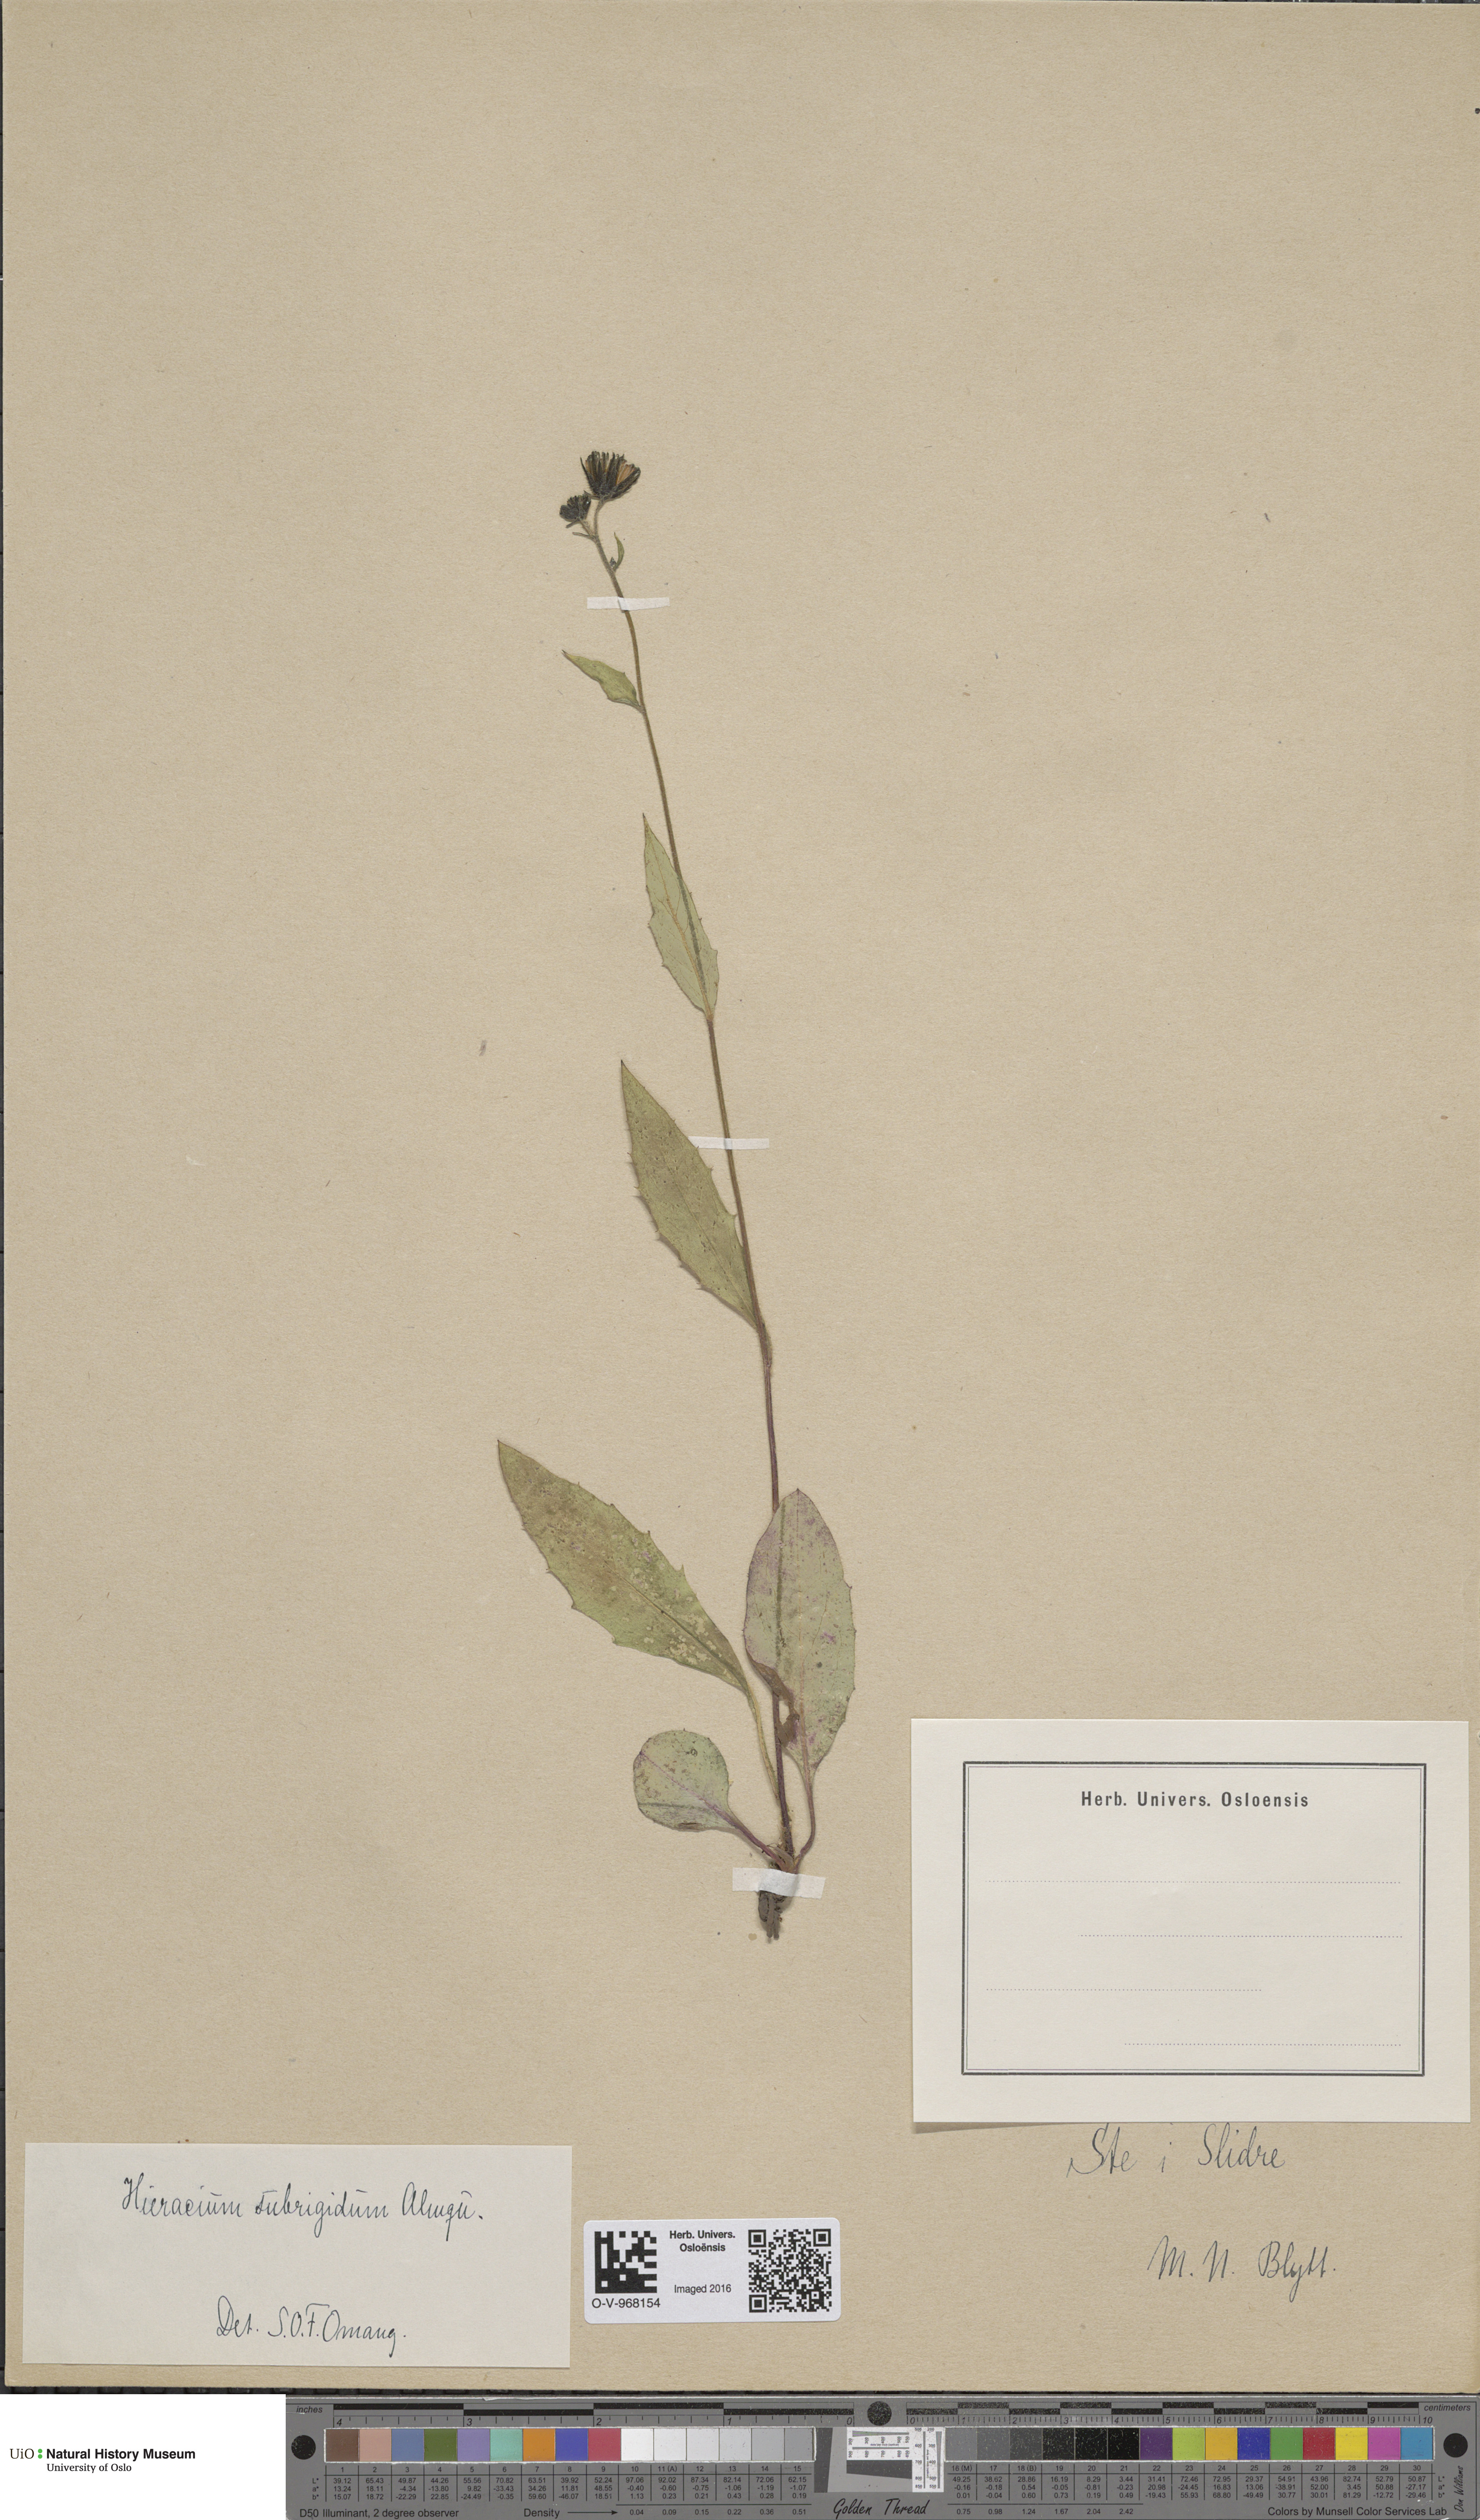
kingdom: Plantae
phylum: Tracheophyta
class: Magnoliopsida
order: Asterales
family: Asteraceae
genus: Hieracium
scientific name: Hieracium subrigidum
